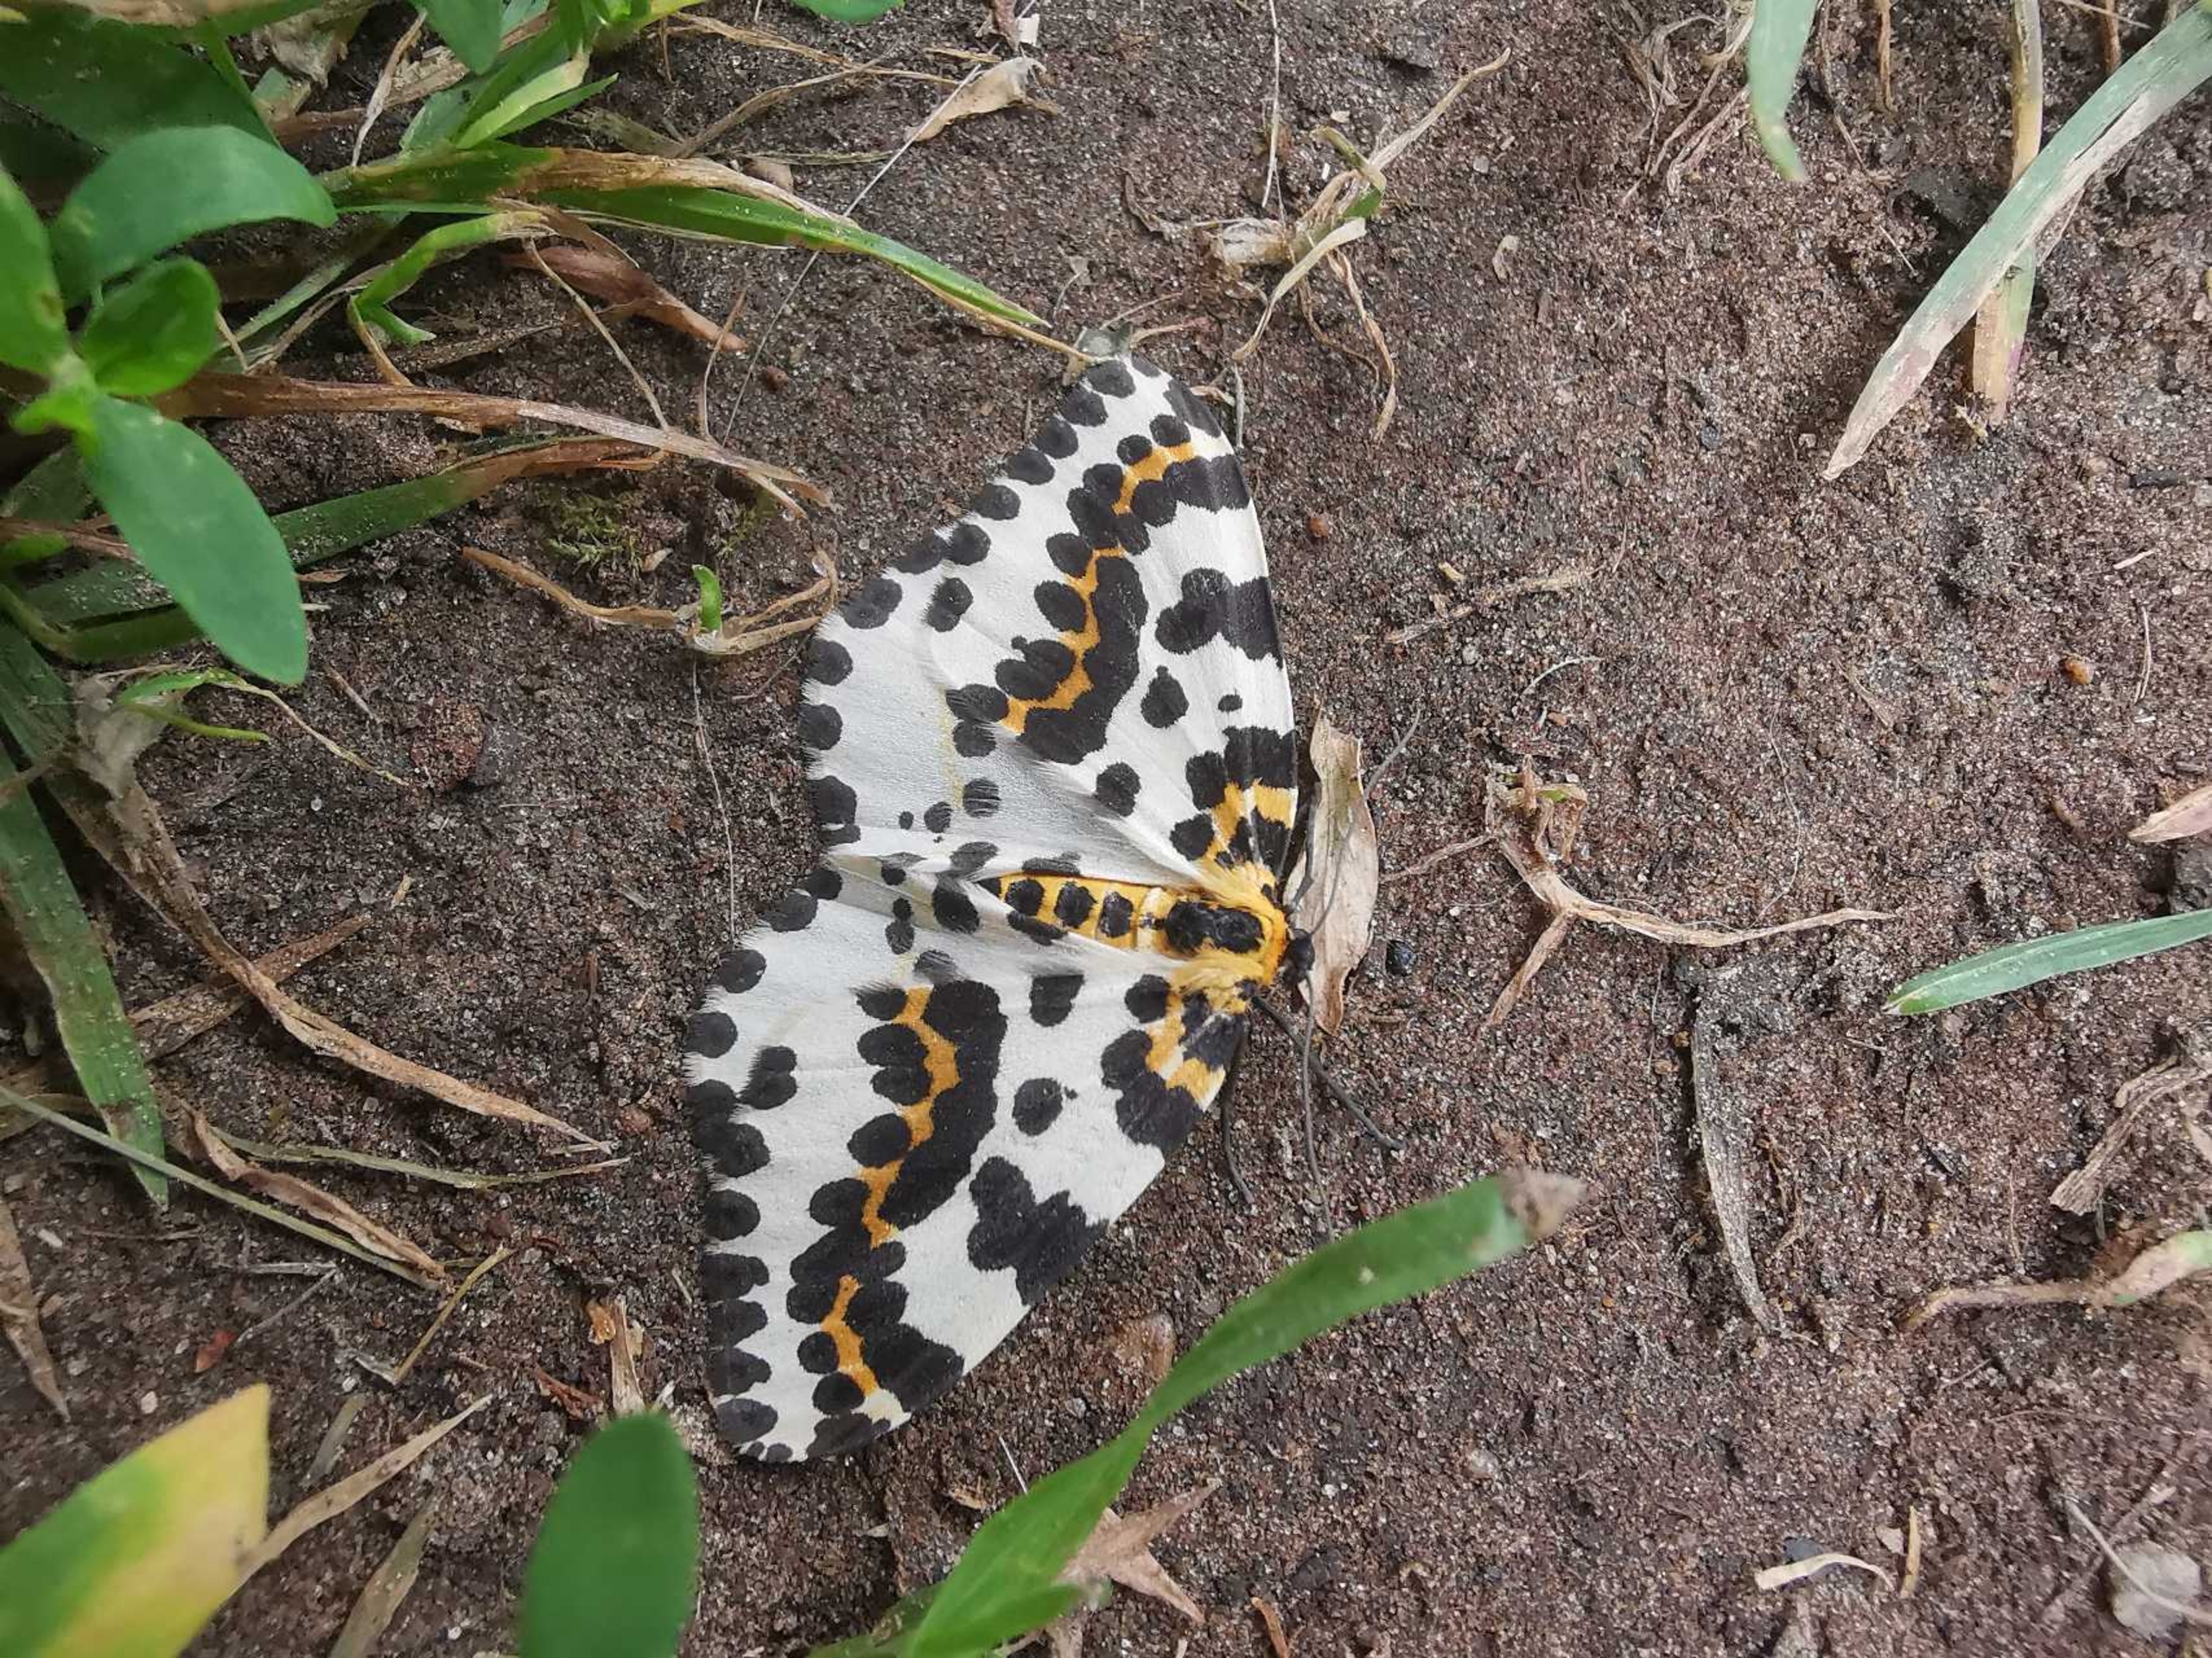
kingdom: Animalia
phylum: Arthropoda
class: Insecta
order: Lepidoptera
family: Geometridae
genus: Abraxas
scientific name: Abraxas grossulariata
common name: Harlekin
